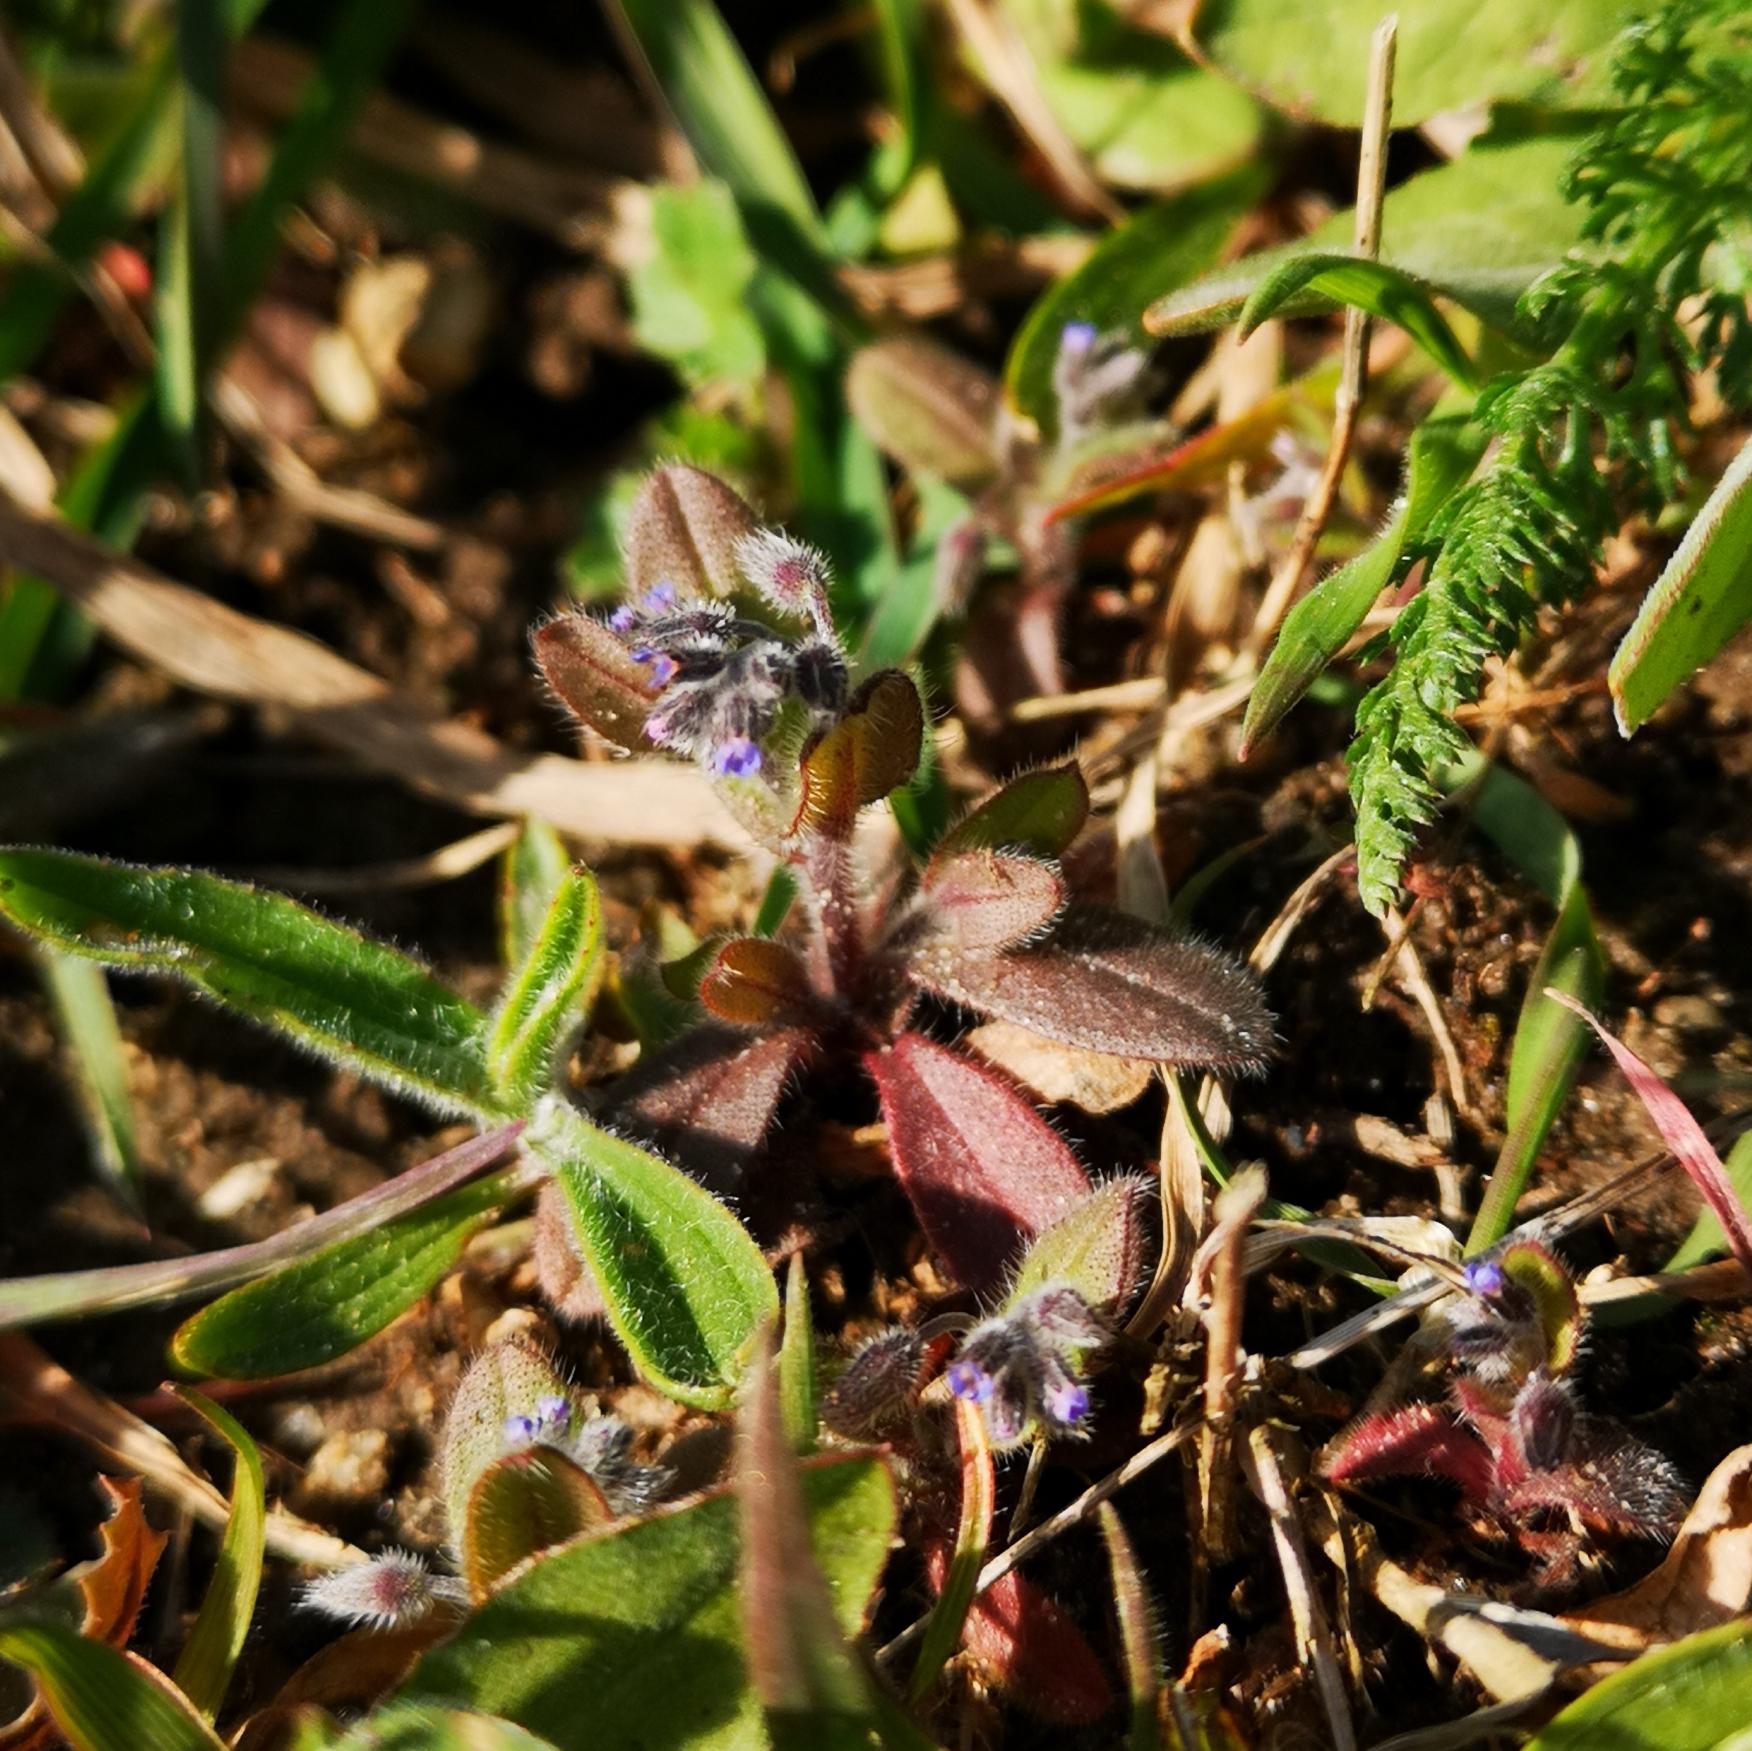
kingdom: Plantae
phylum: Tracheophyta
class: Magnoliopsida
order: Boraginales
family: Boraginaceae
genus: Myosotis
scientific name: Myosotis ramosissima
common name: Bakke-forglemmigej
